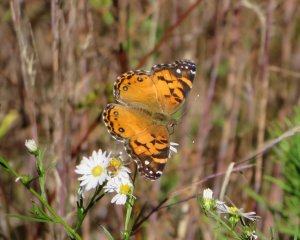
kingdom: Animalia
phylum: Arthropoda
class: Insecta
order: Lepidoptera
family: Nymphalidae
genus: Vanessa
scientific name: Vanessa virginiensis
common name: American Lady
